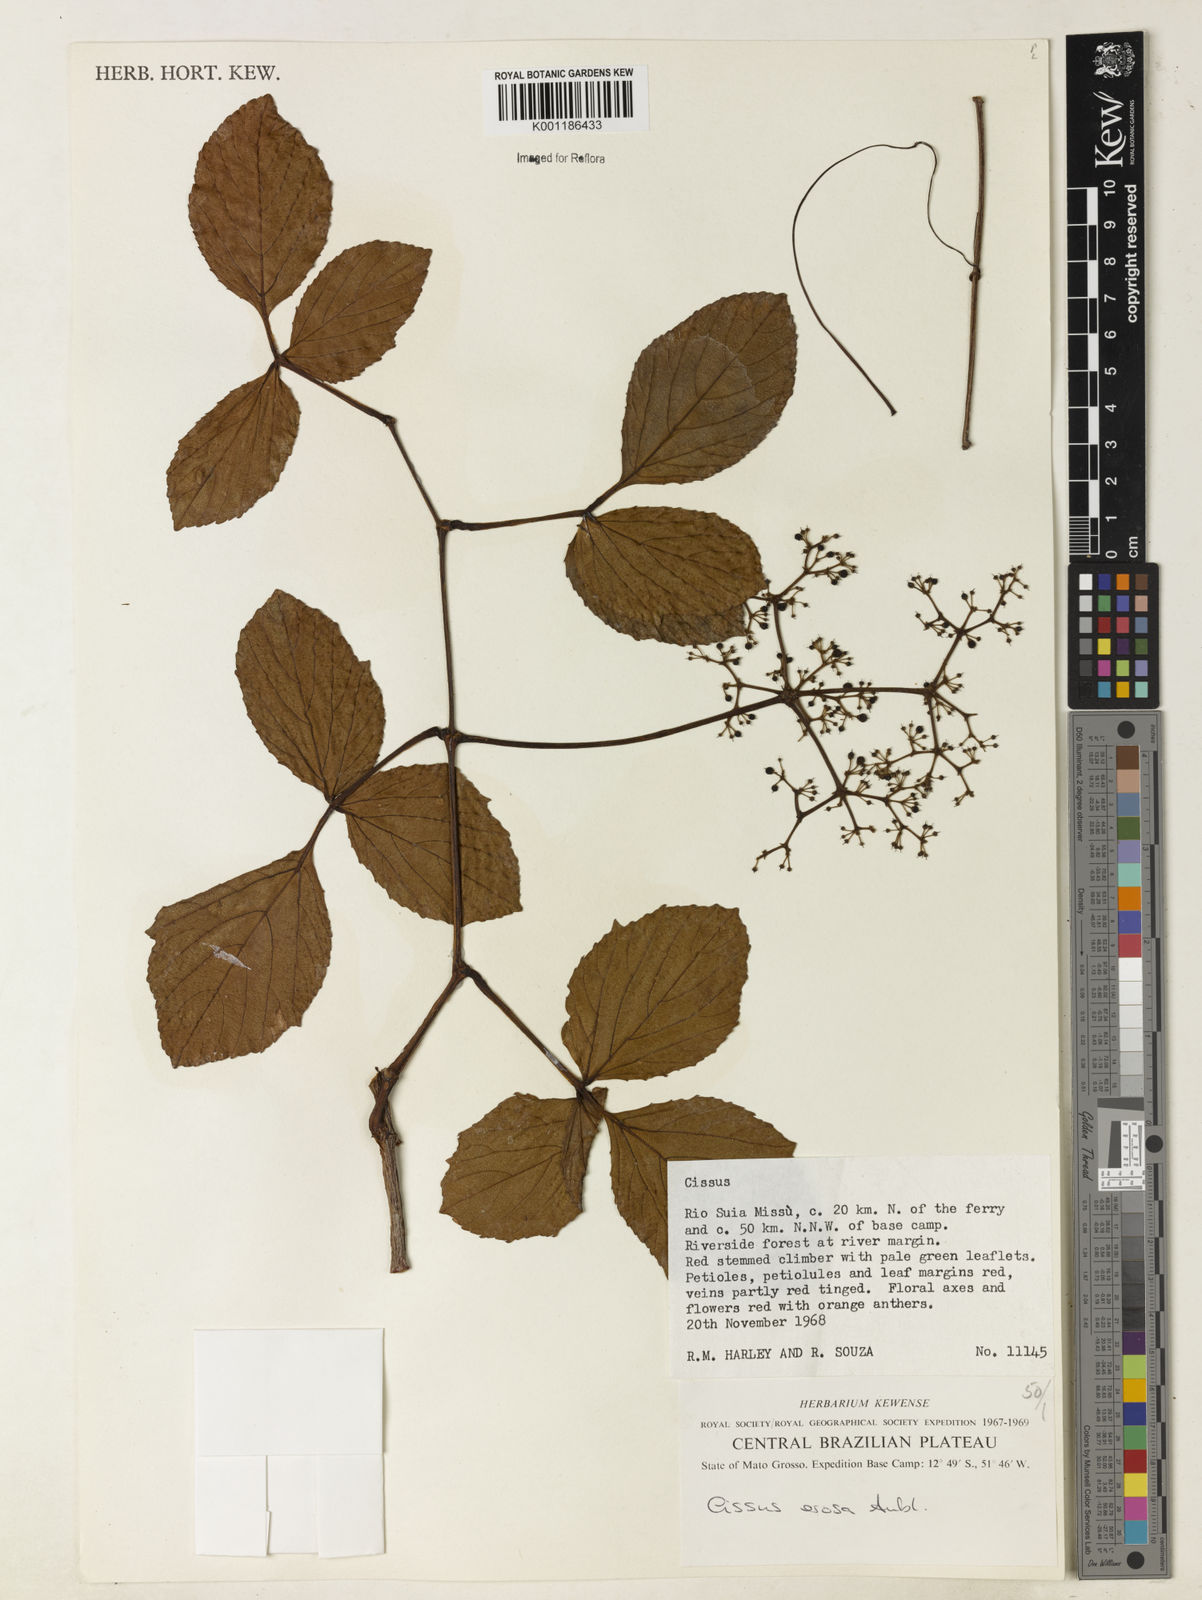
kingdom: Plantae
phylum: Tracheophyta
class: Magnoliopsida
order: Vitales
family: Vitaceae
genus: Cissus
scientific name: Cissus erosa
